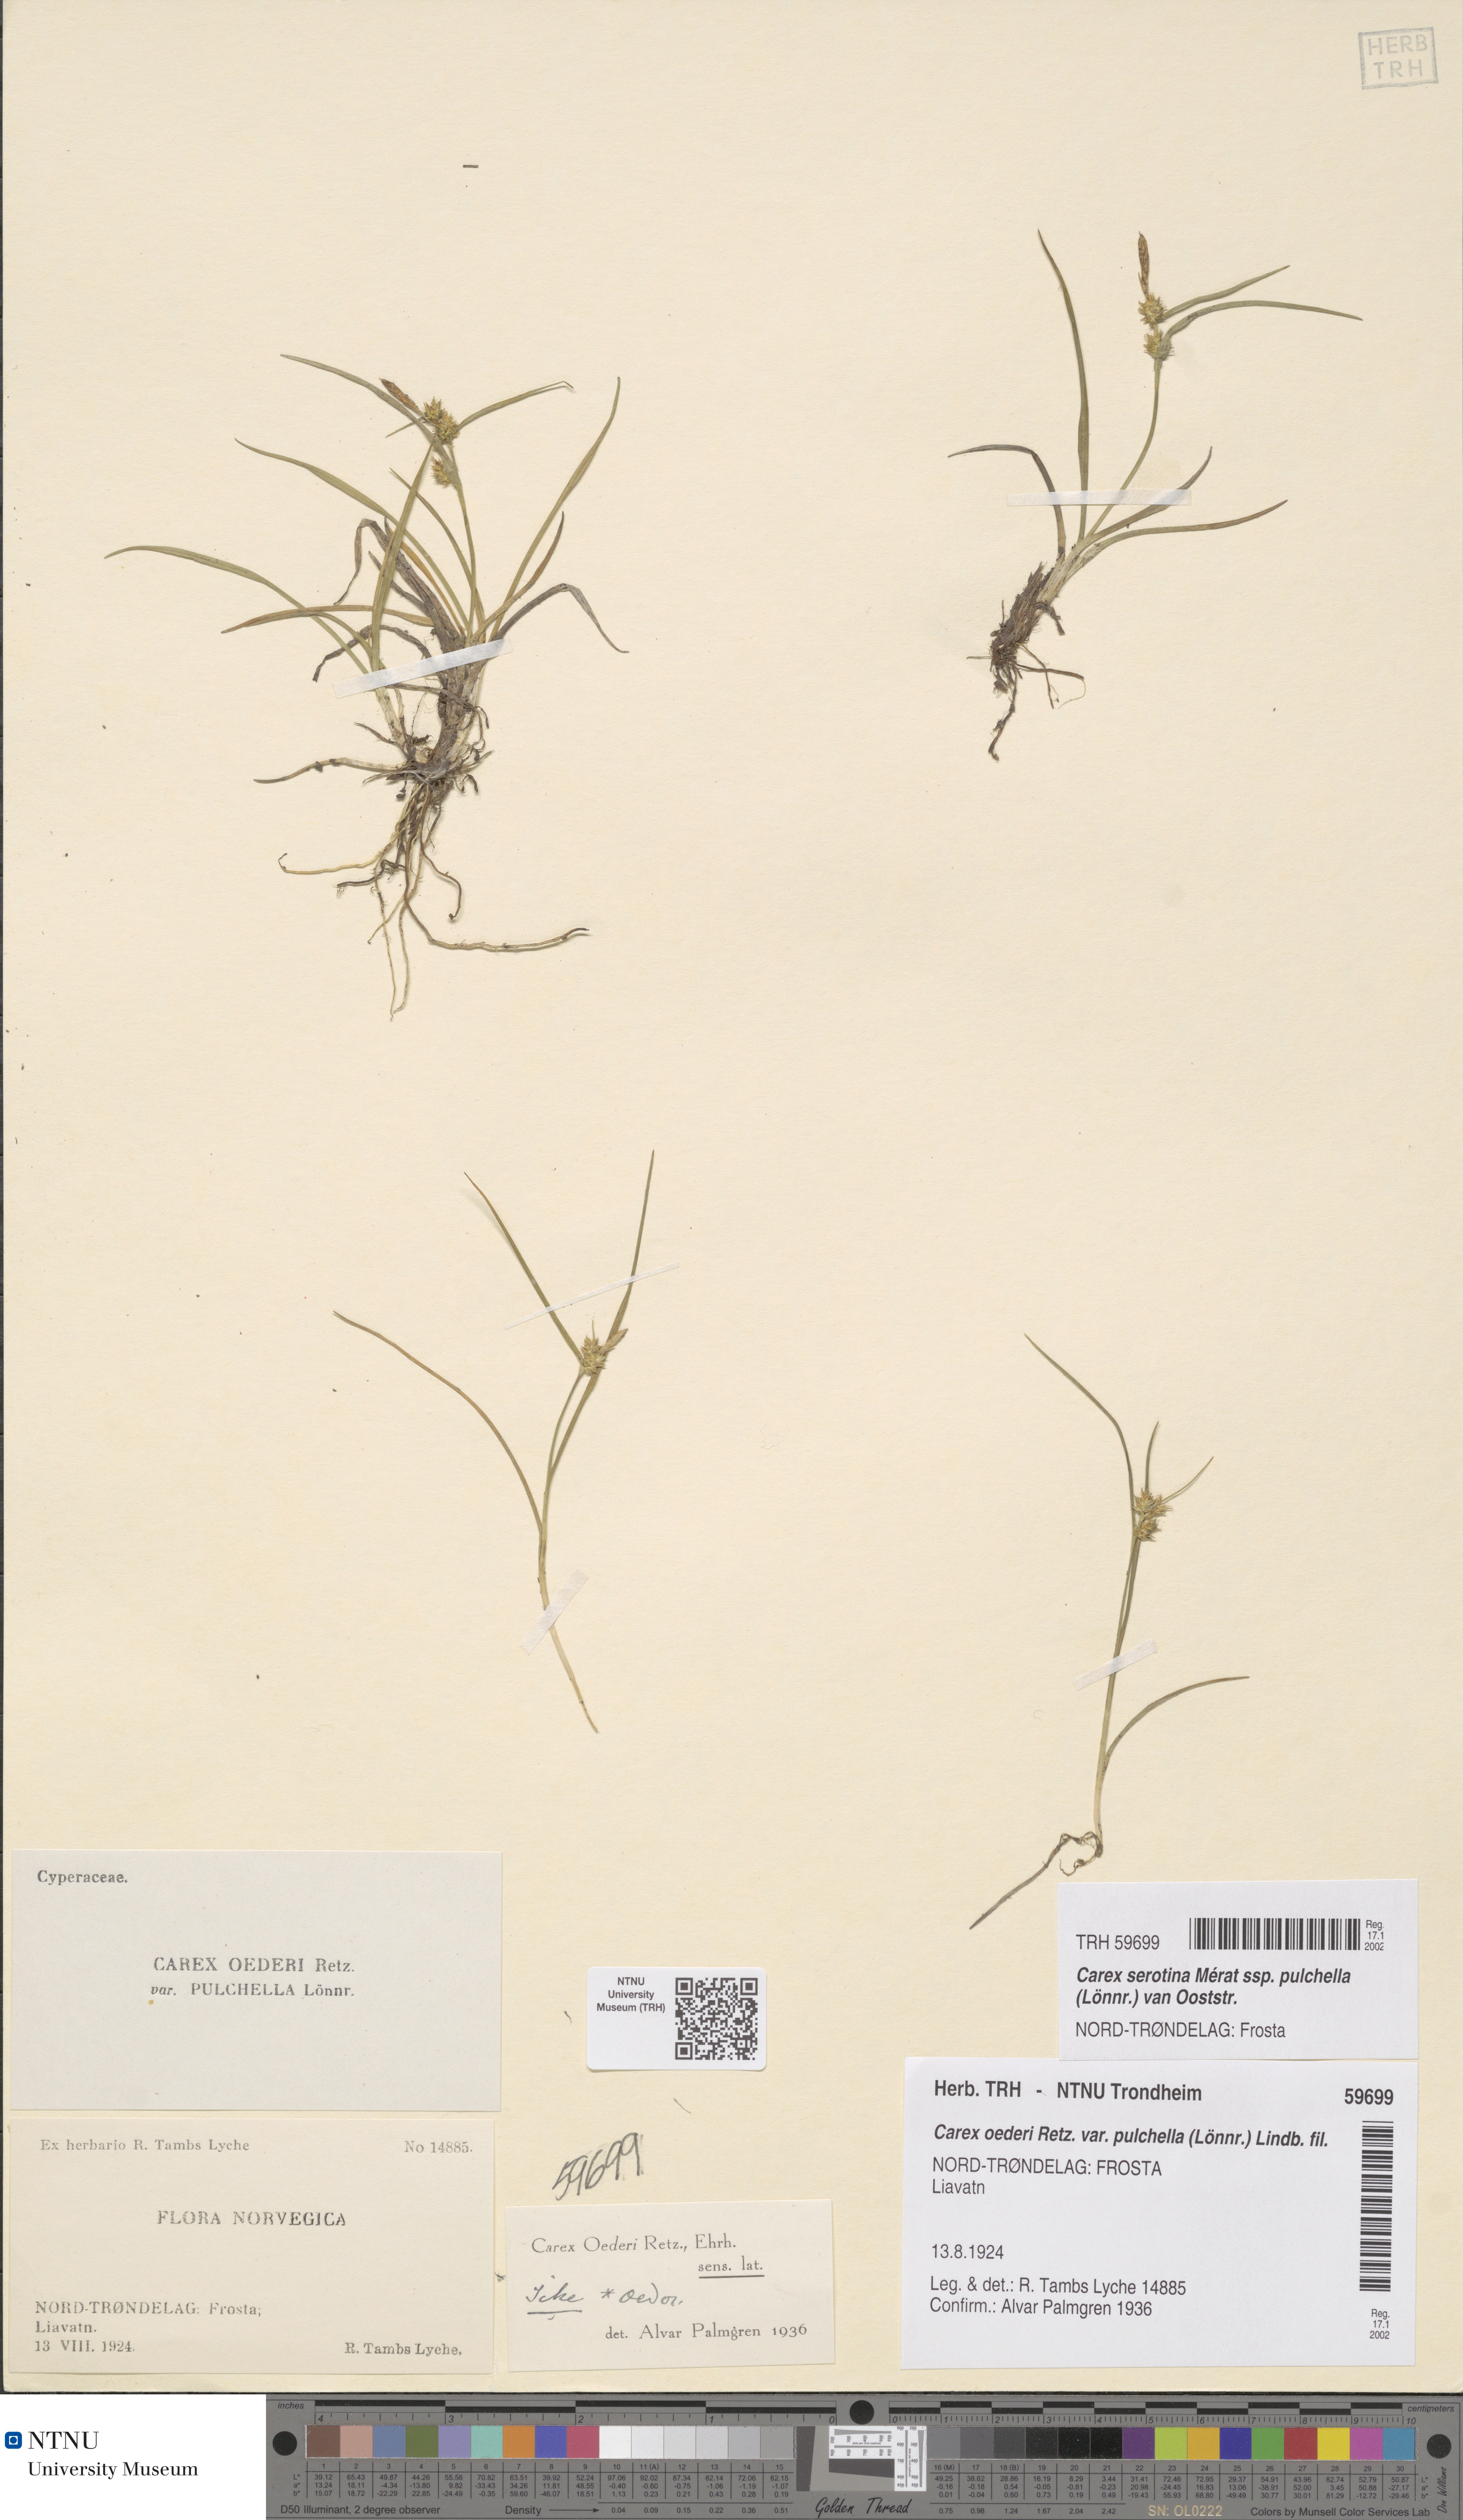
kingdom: Plantae
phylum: Tracheophyta
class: Liliopsida
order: Poales
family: Cyperaceae
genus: Carex
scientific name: Carex oederi
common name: Common & small-fruited yellow-sedge
